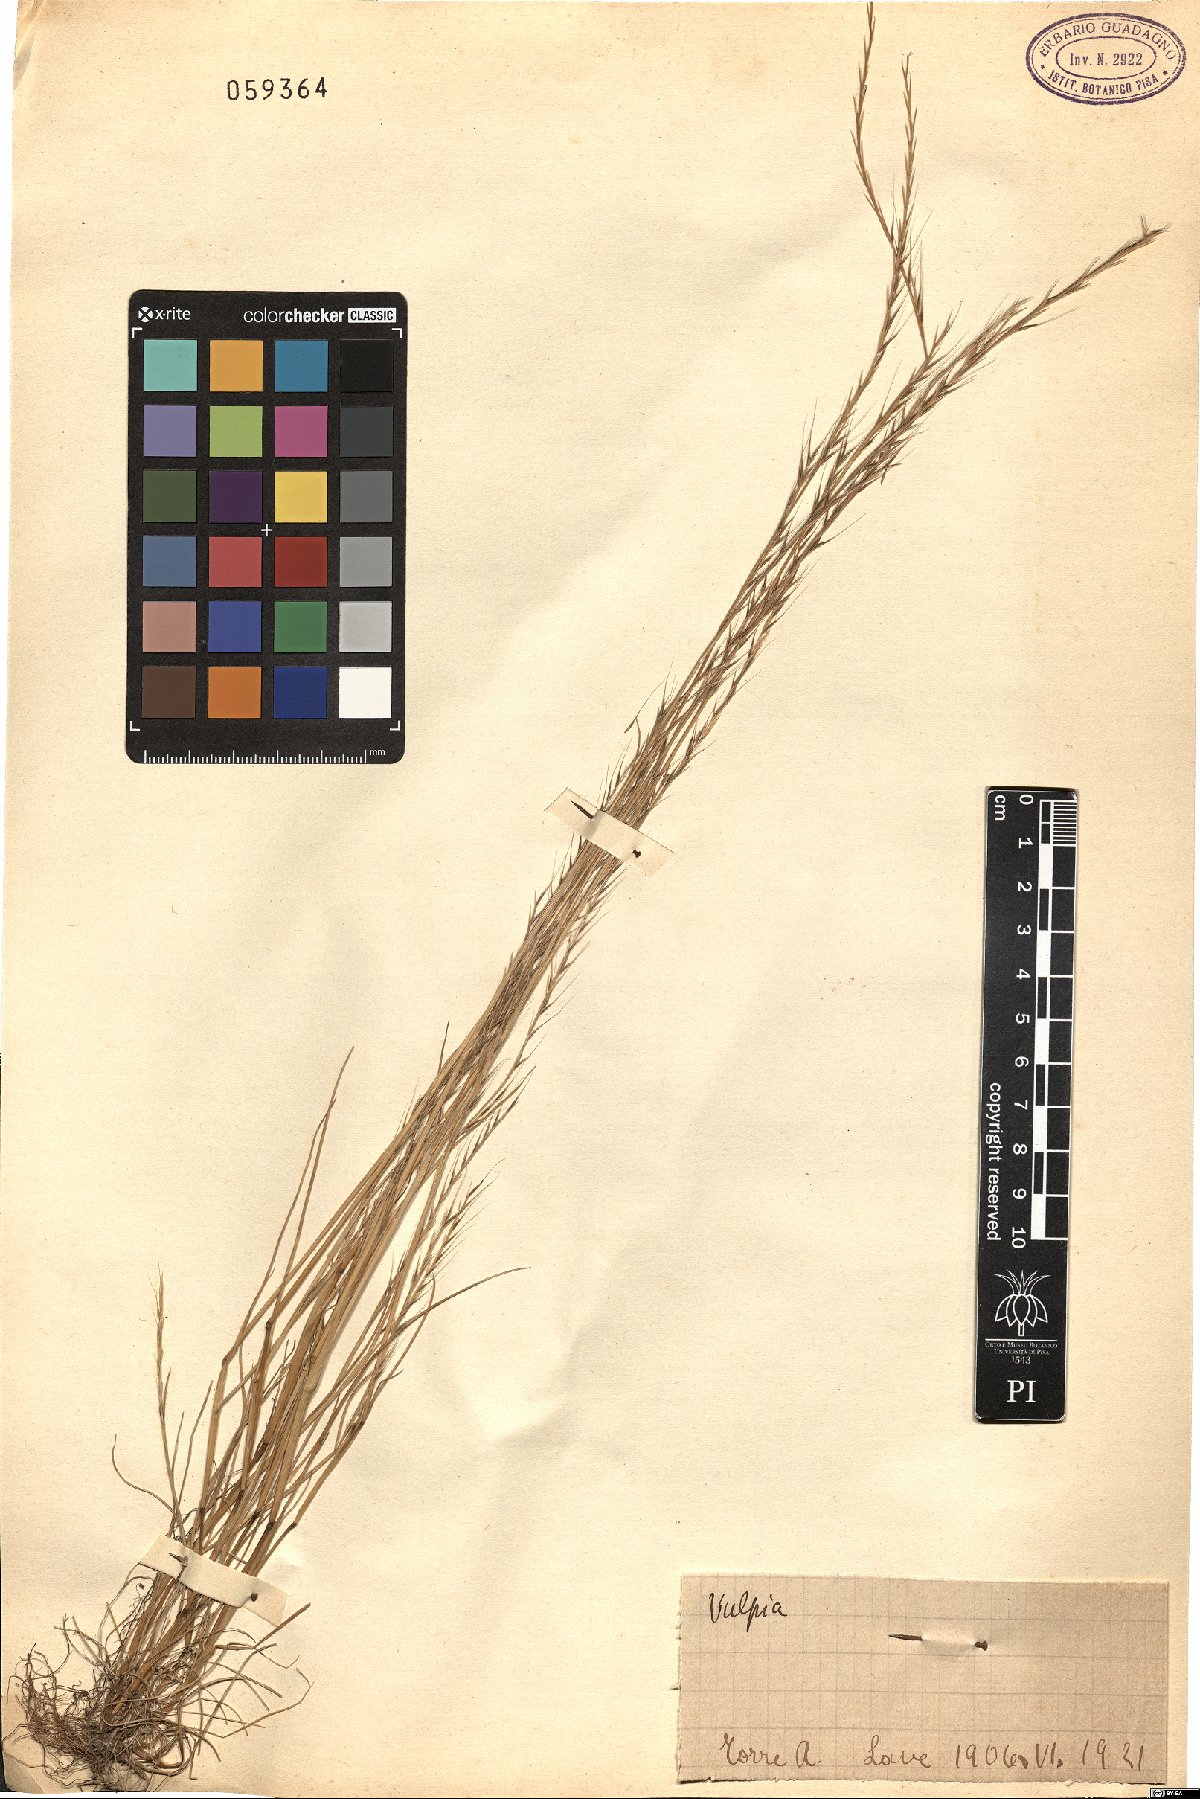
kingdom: Plantae
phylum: Tracheophyta
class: Liliopsida
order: Poales
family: Poaceae
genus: Festuca
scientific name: Festuca
